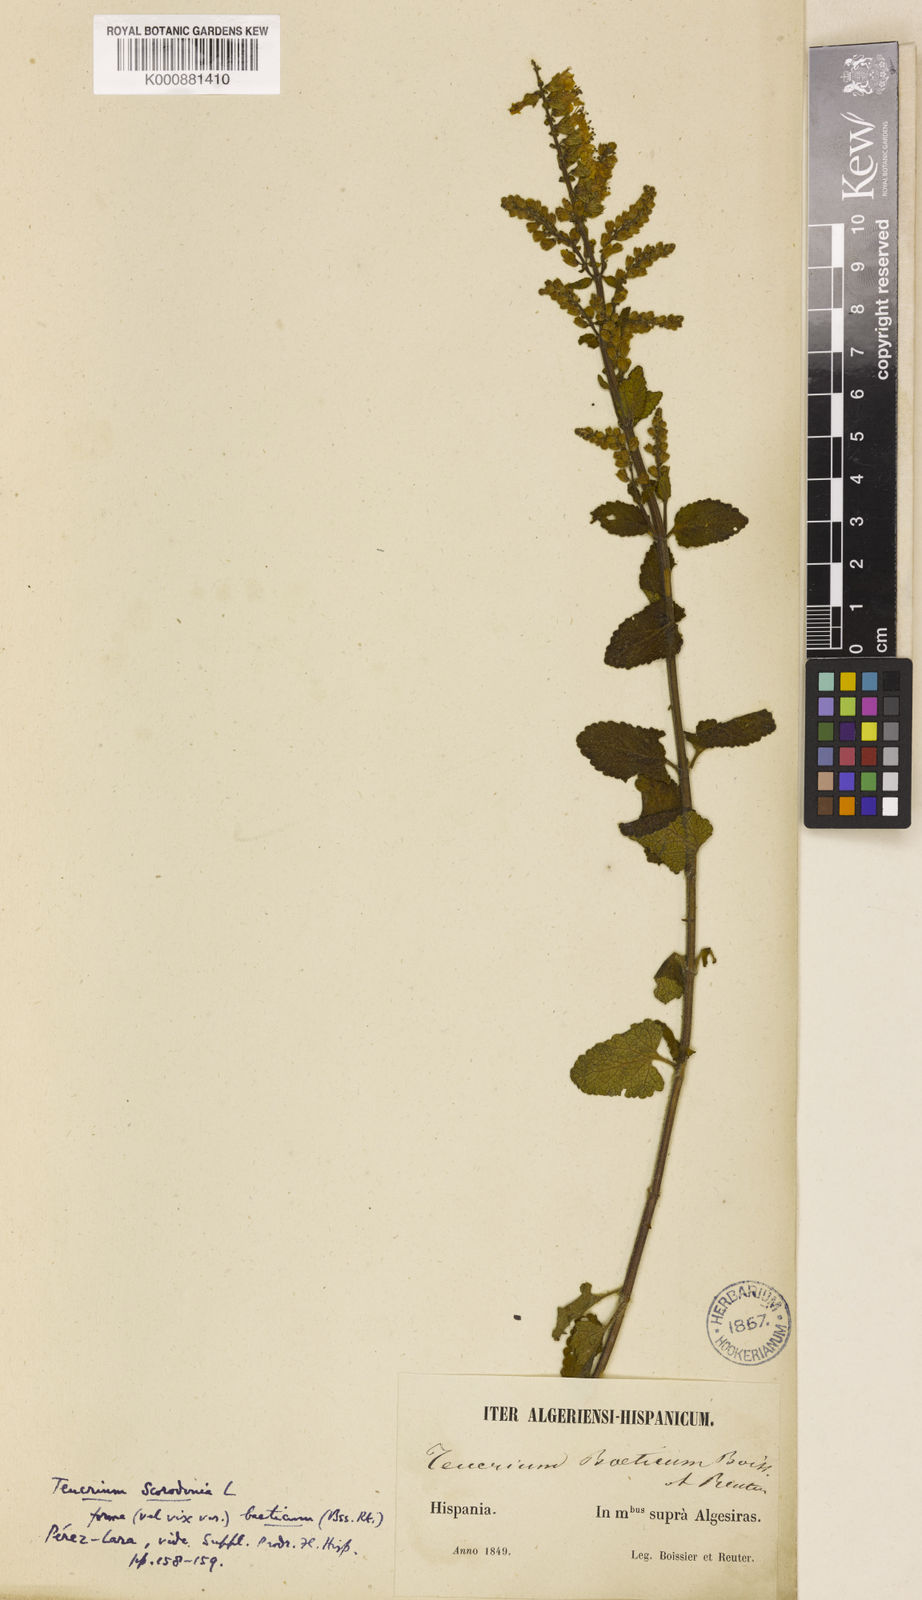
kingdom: Plantae
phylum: Tracheophyta
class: Magnoliopsida
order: Lamiales
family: Lamiaceae
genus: Teucrium
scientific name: Teucrium pseudoscorodonia
